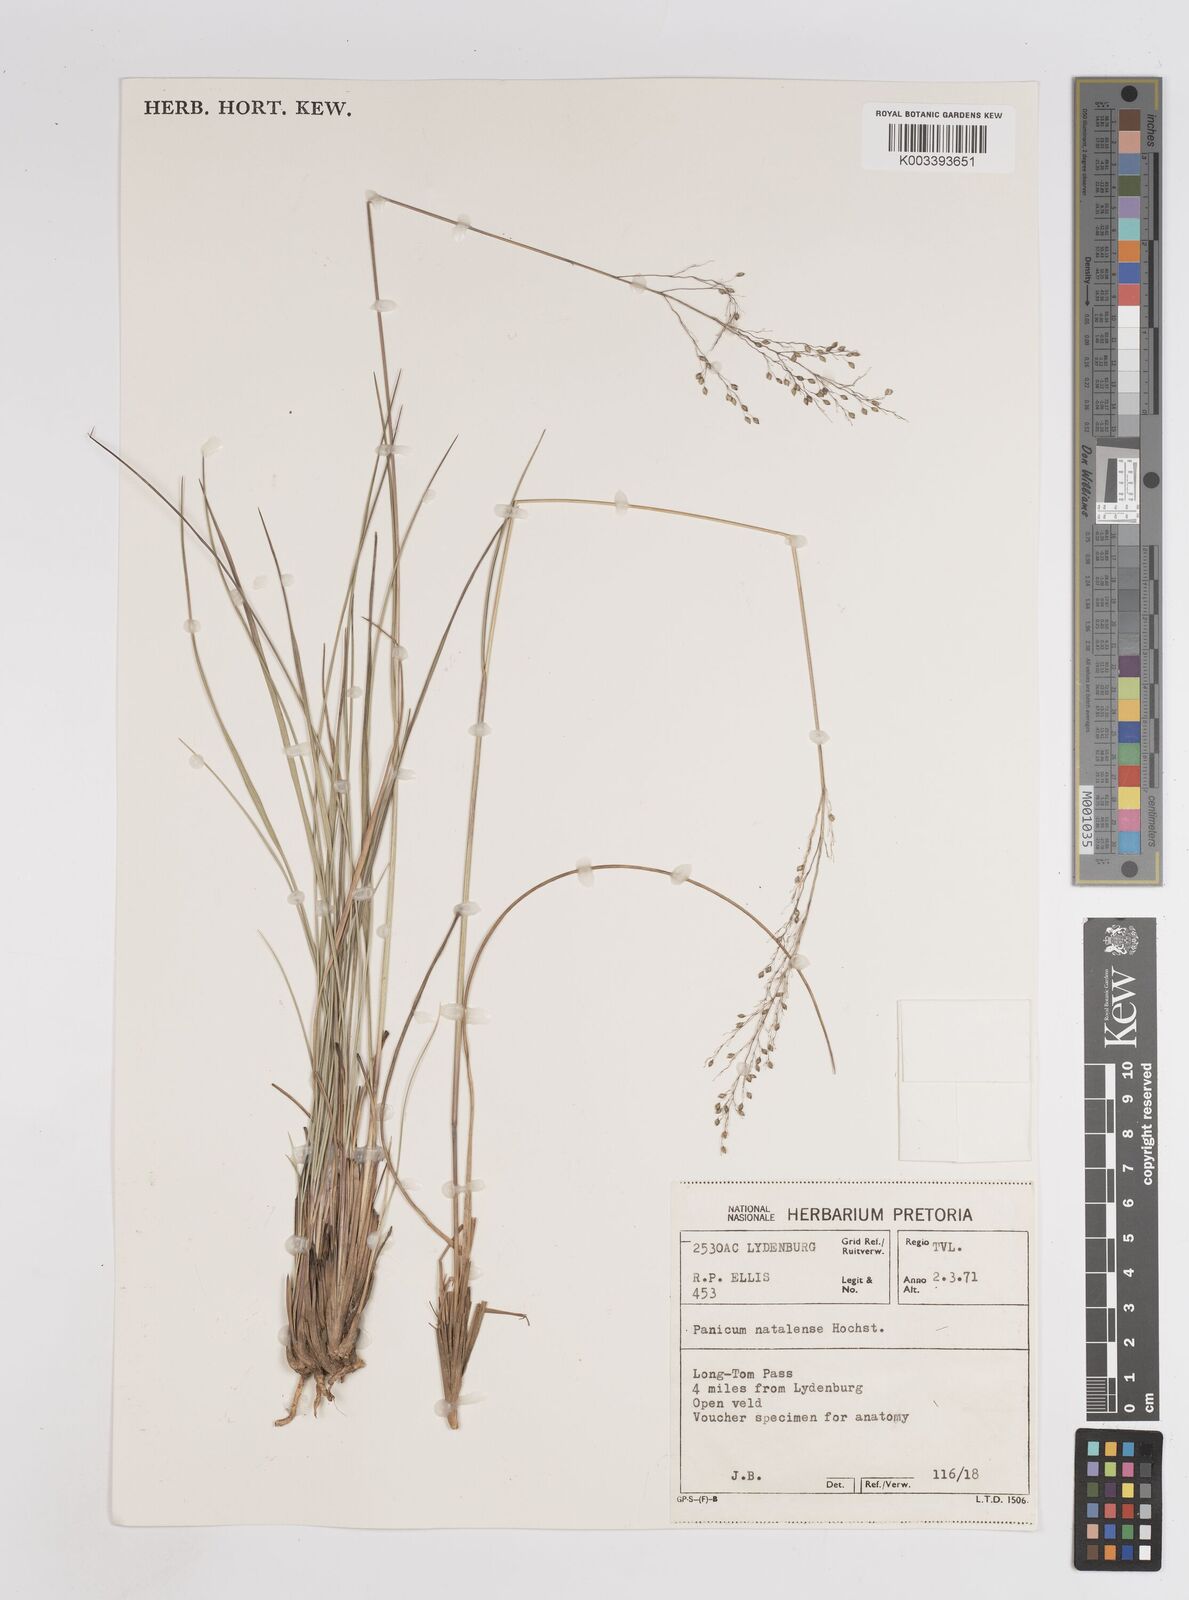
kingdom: Plantae
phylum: Tracheophyta
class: Liliopsida
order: Poales
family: Poaceae
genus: Trichanthecium
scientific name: Trichanthecium natalense
